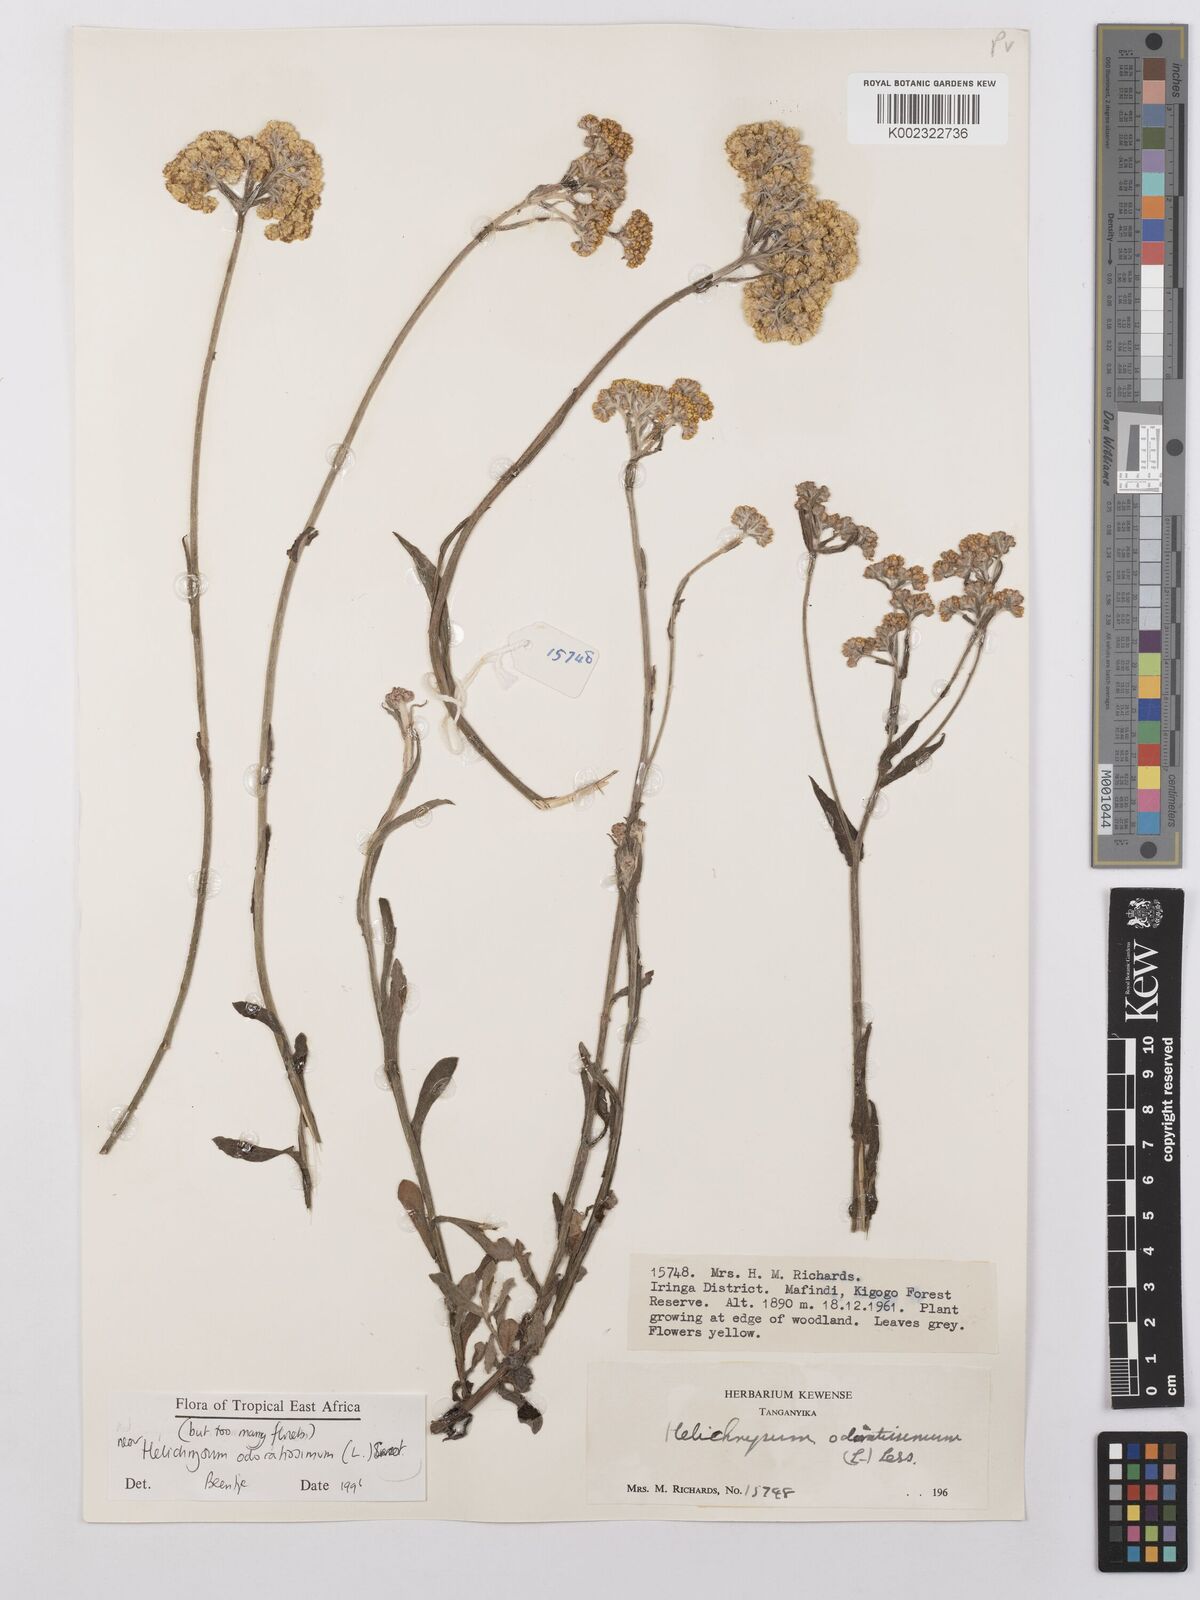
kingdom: Plantae
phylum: Tracheophyta
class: Magnoliopsida
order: Asterales
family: Asteraceae
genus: Helichrysum
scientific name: Helichrysum odoratissimum
